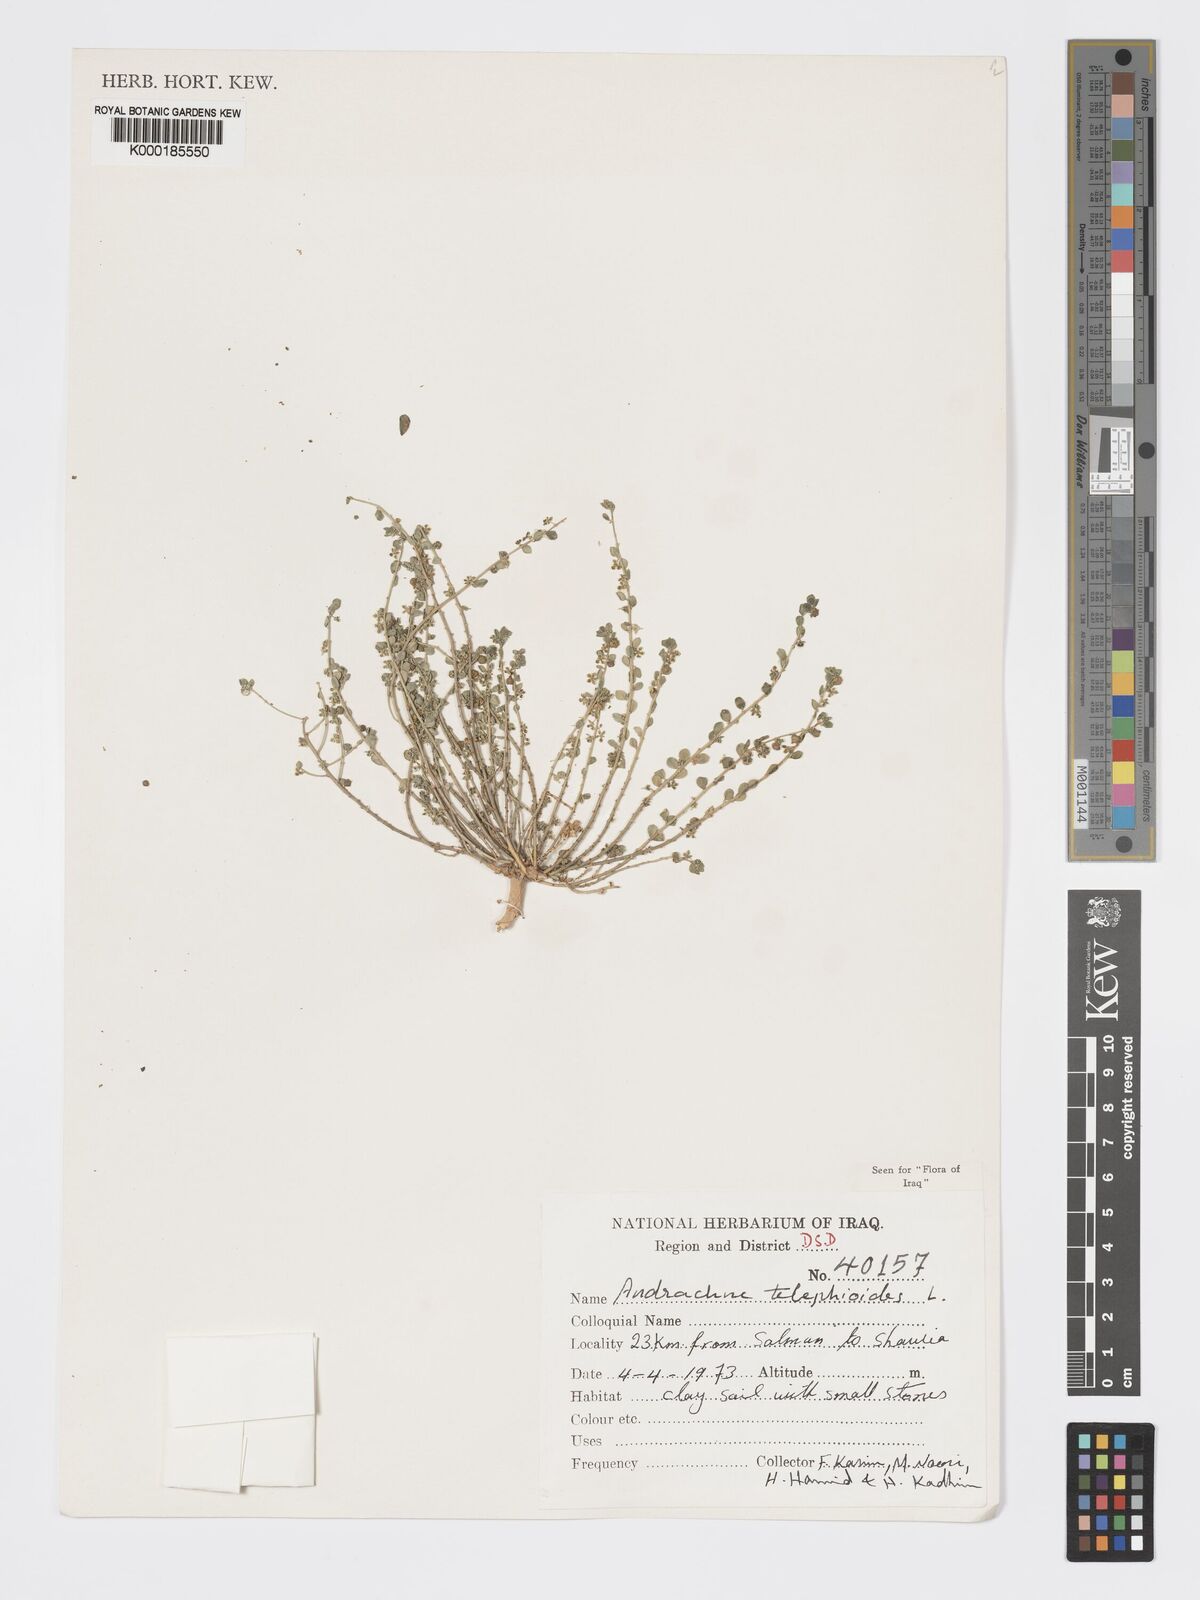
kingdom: Plantae
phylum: Tracheophyta
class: Magnoliopsida
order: Malpighiales
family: Phyllanthaceae
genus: Andrachne
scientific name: Andrachne telephioides
